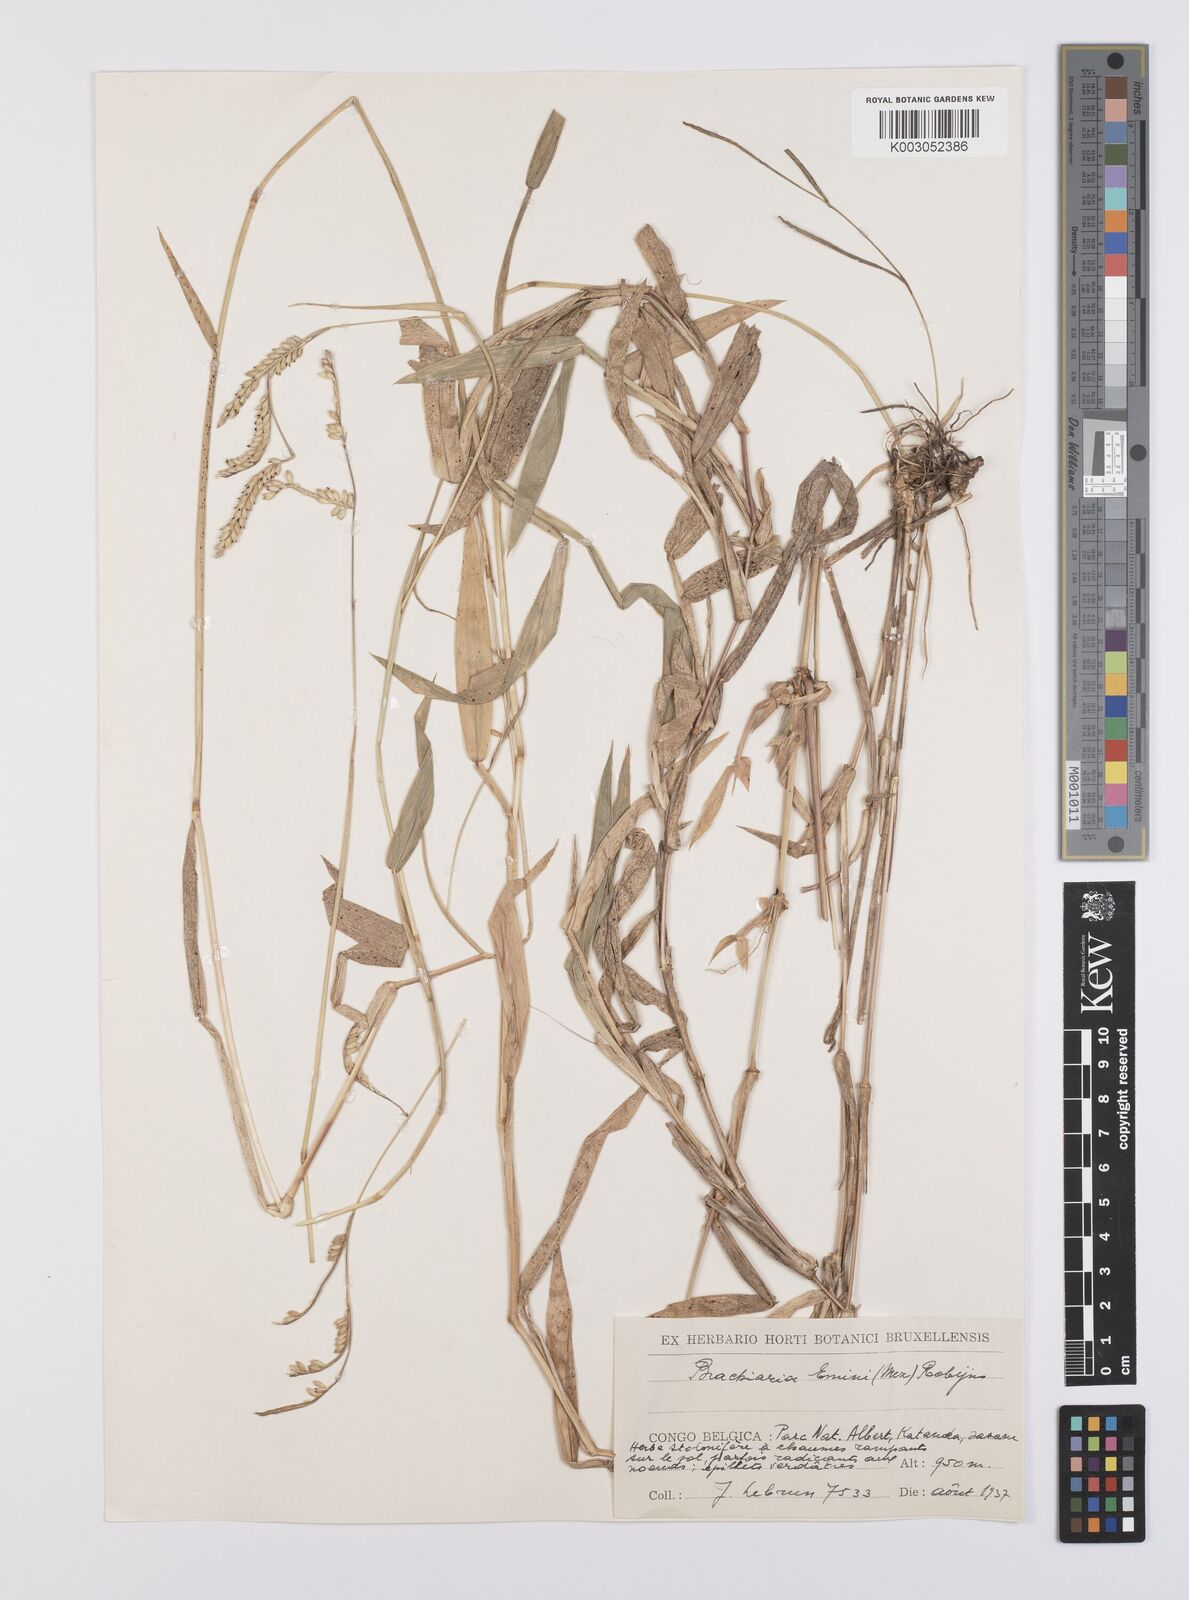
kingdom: Plantae
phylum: Tracheophyta
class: Liliopsida
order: Poales
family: Poaceae
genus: Urochloa
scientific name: Urochloa eminii
